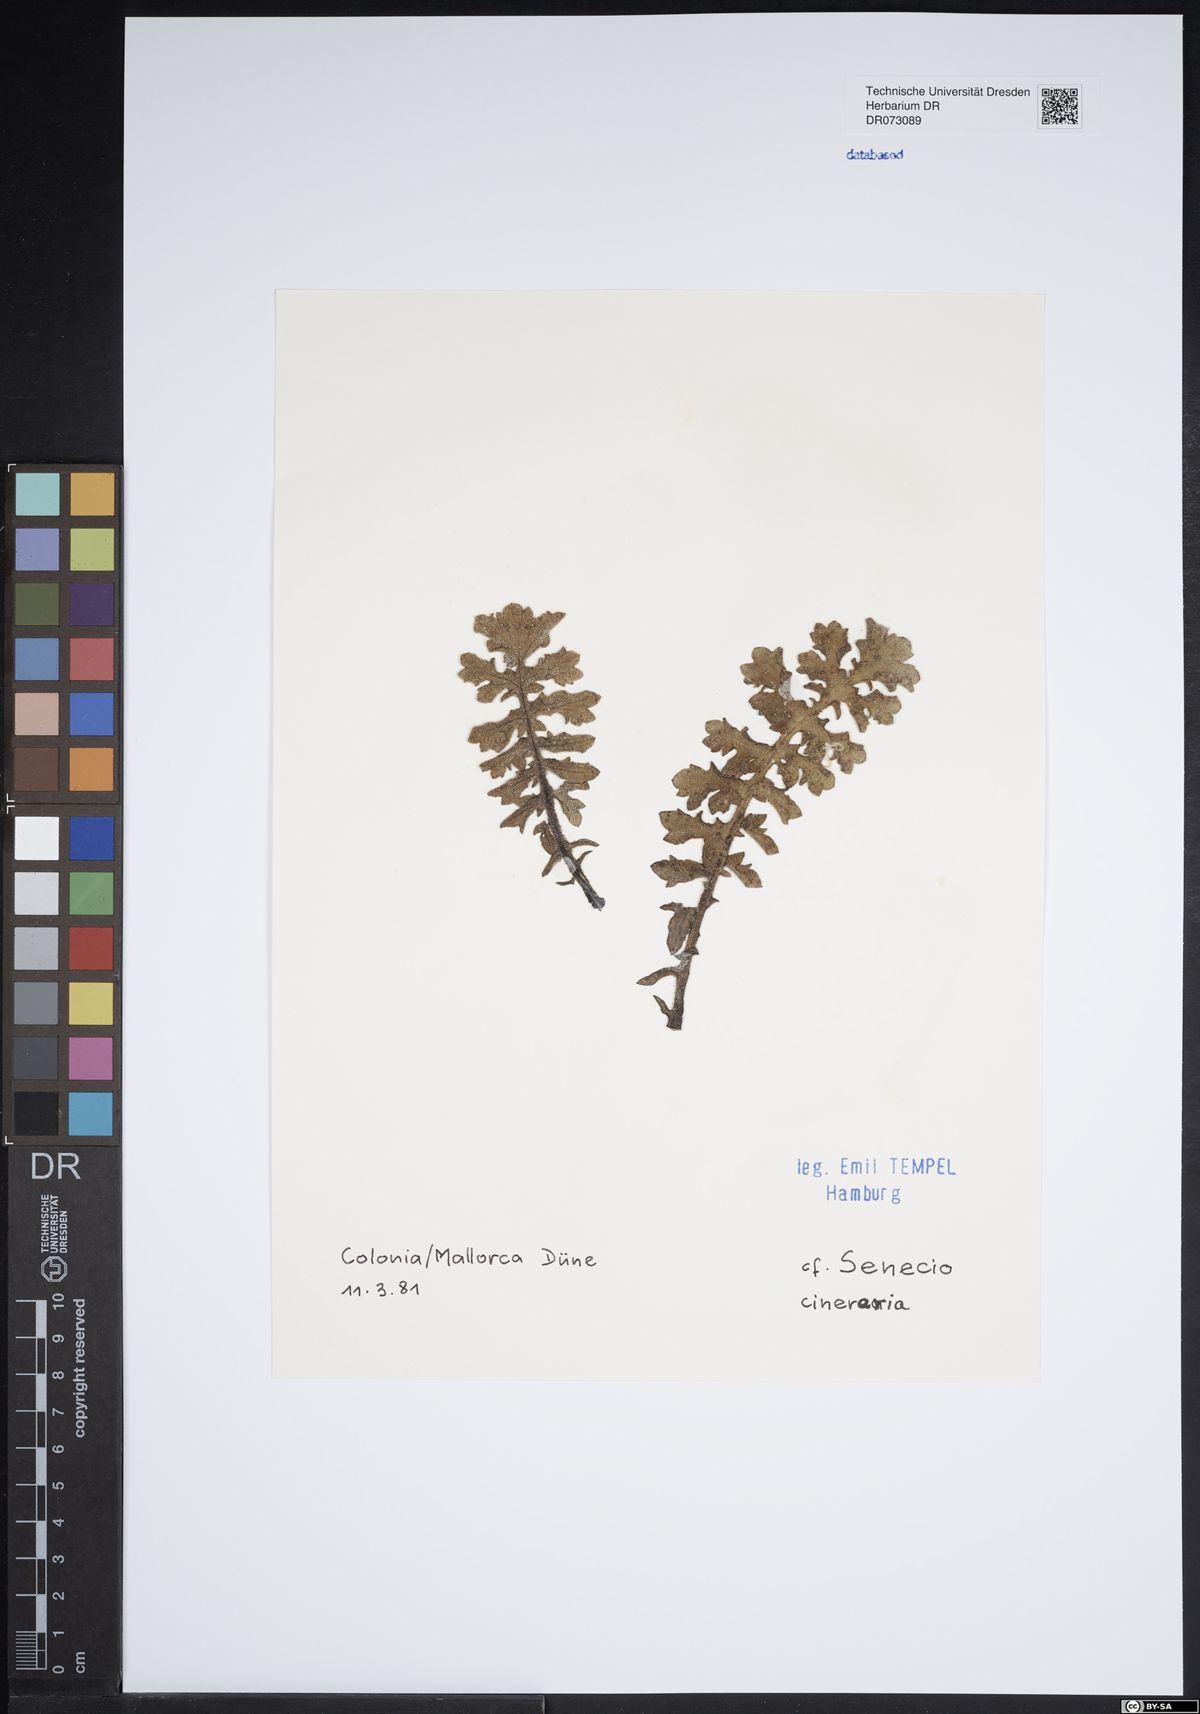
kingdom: Plantae
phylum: Tracheophyta
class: Magnoliopsida
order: Asterales
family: Asteraceae
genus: Centaurea
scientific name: Centaurea aspera
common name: Rough star-thistle
